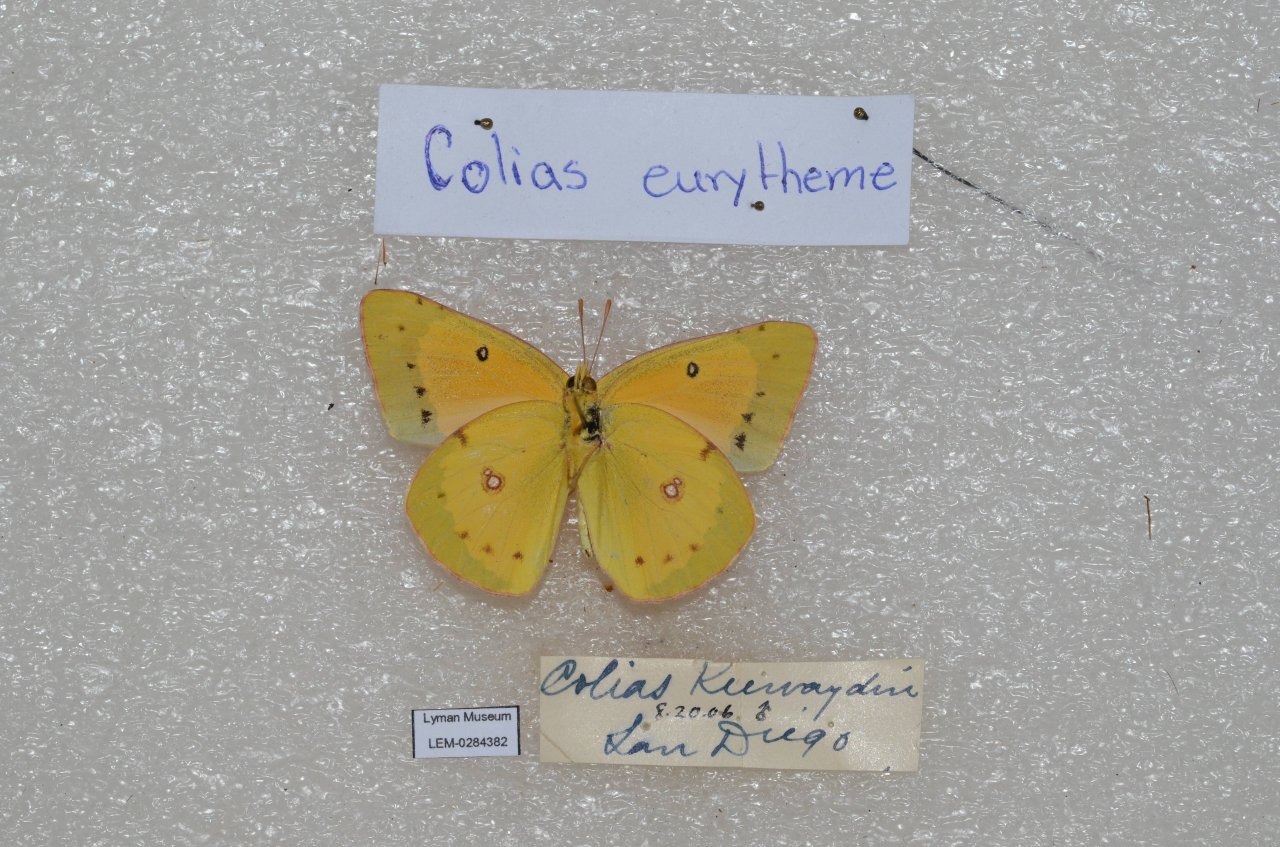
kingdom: Animalia
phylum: Arthropoda
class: Insecta
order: Lepidoptera
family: Pieridae
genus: Colias
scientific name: Colias eurytheme
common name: Orange Sulphur
